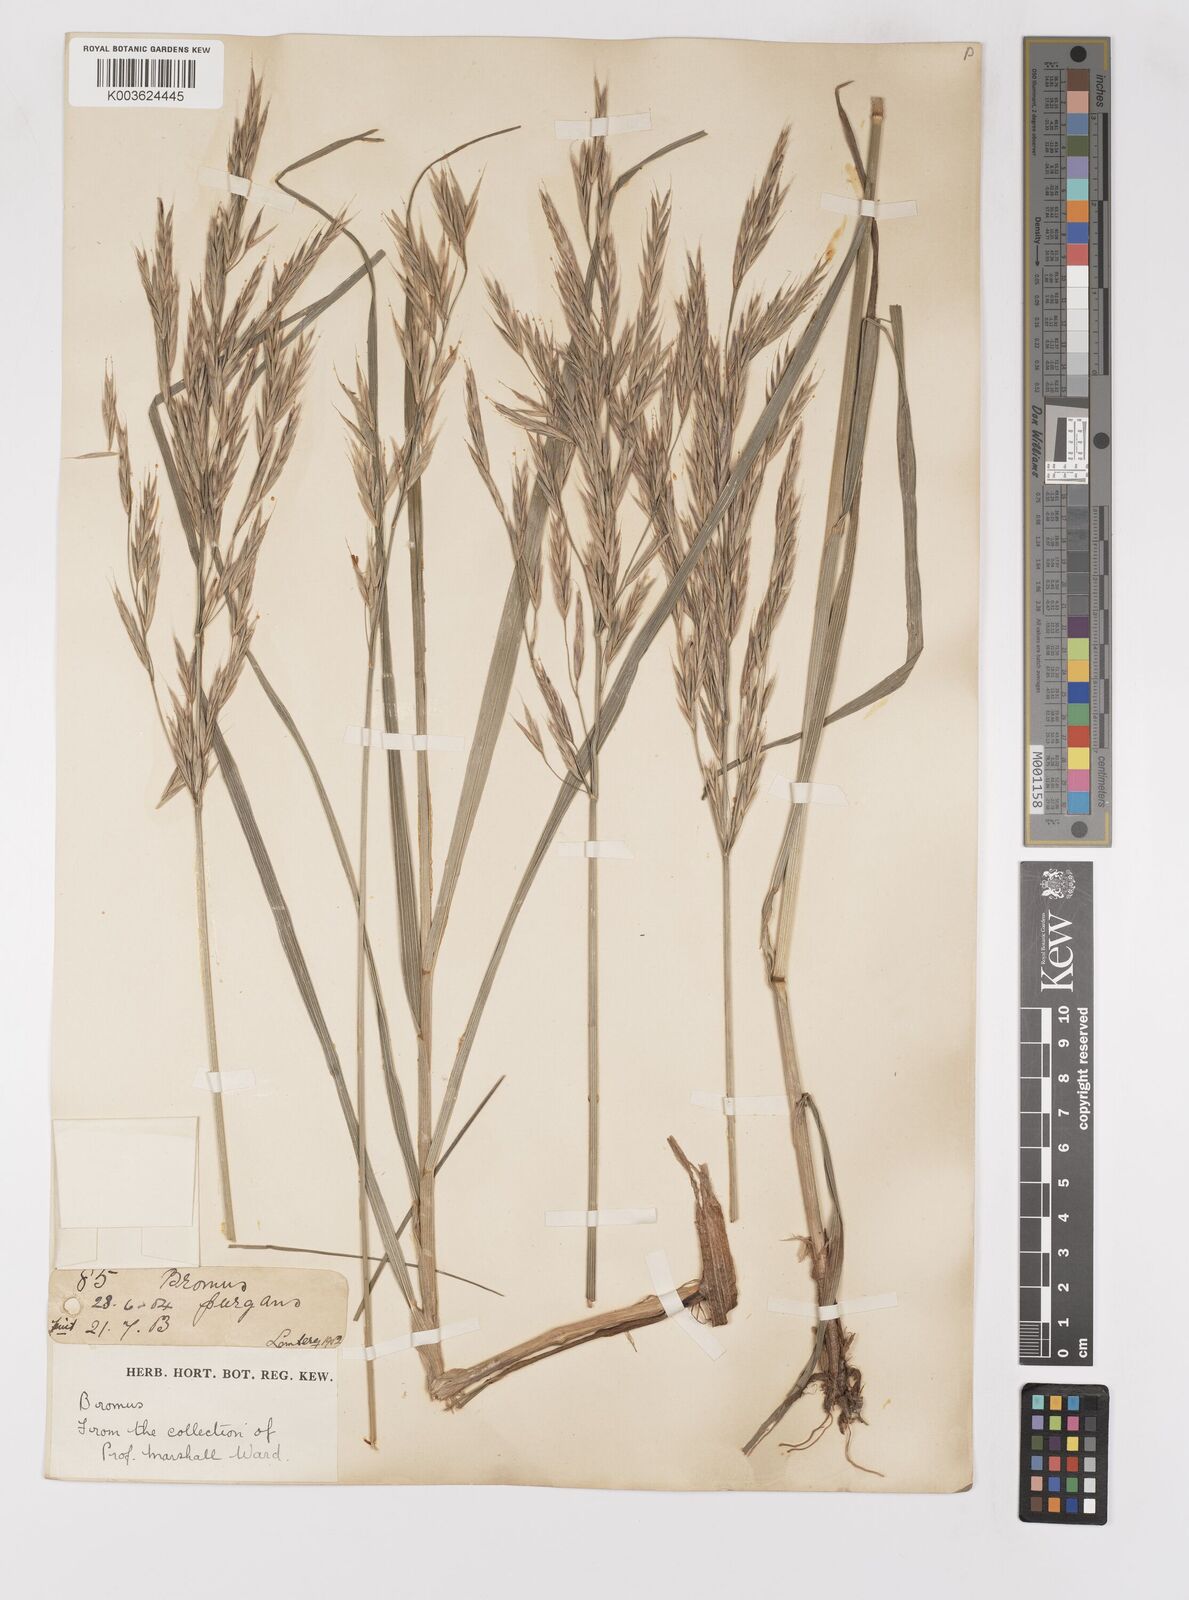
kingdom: Plantae
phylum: Tracheophyta
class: Liliopsida
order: Poales
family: Poaceae
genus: Bromus
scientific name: Bromus
